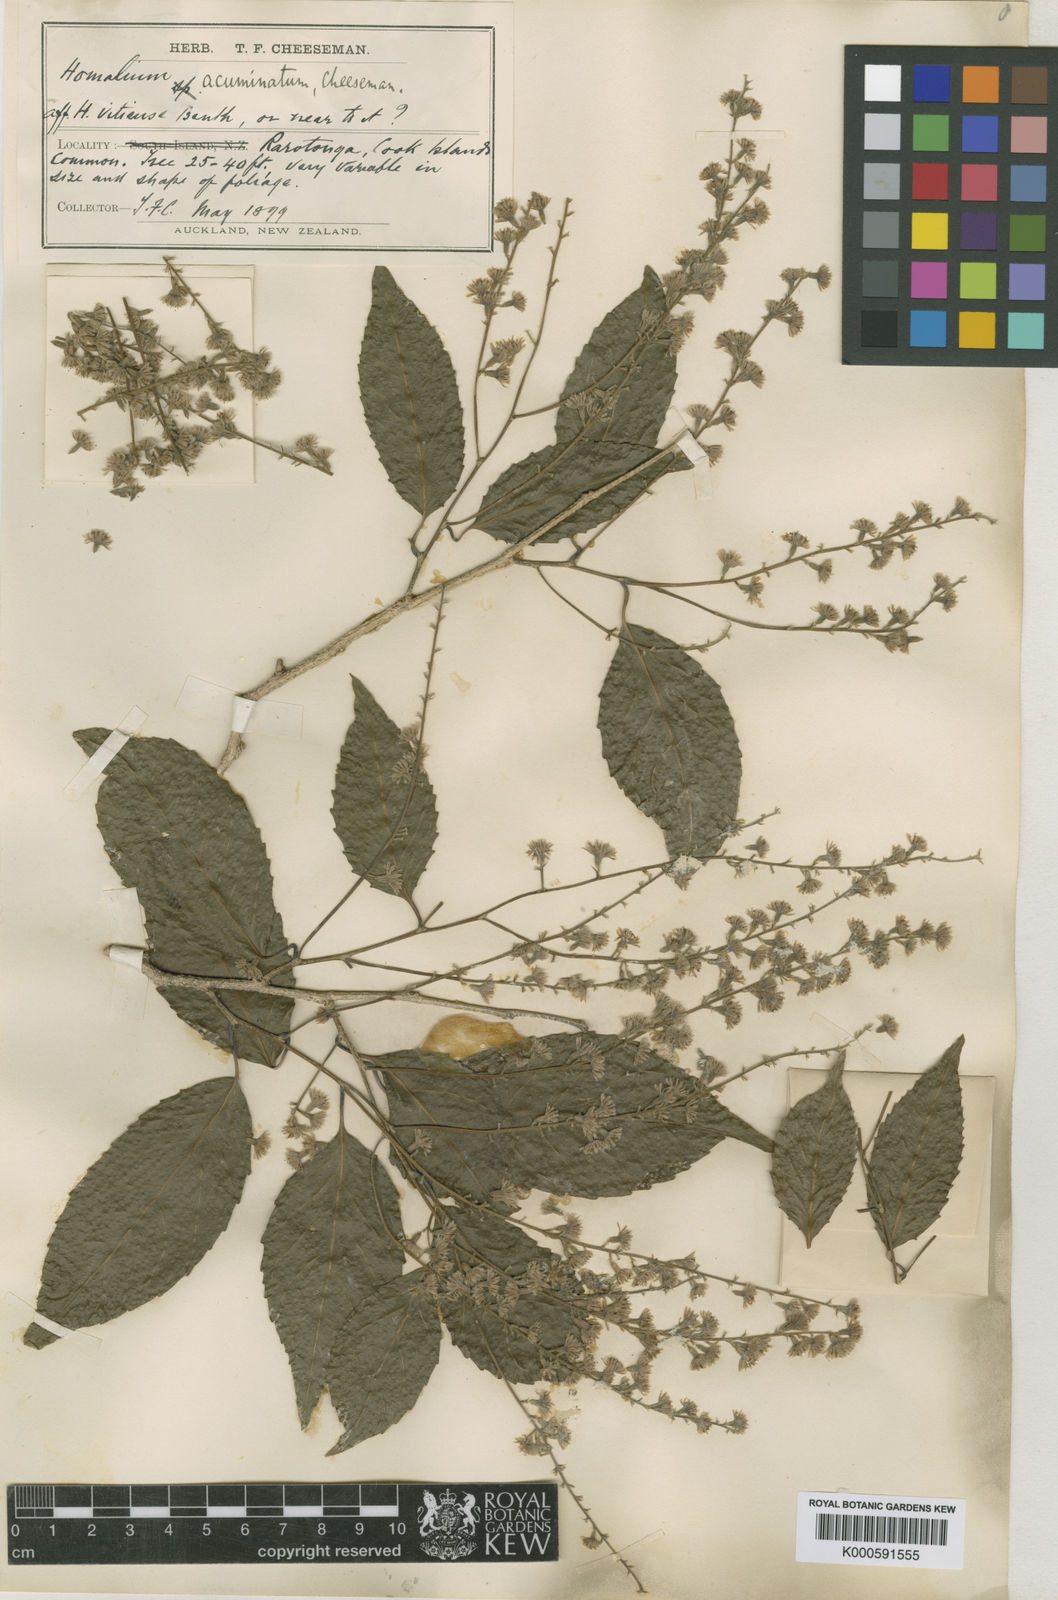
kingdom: Plantae
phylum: Tracheophyta
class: Magnoliopsida
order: Malpighiales
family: Salicaceae
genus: Homalium
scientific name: Homalium acuminatum
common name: Rarotonga homalium
